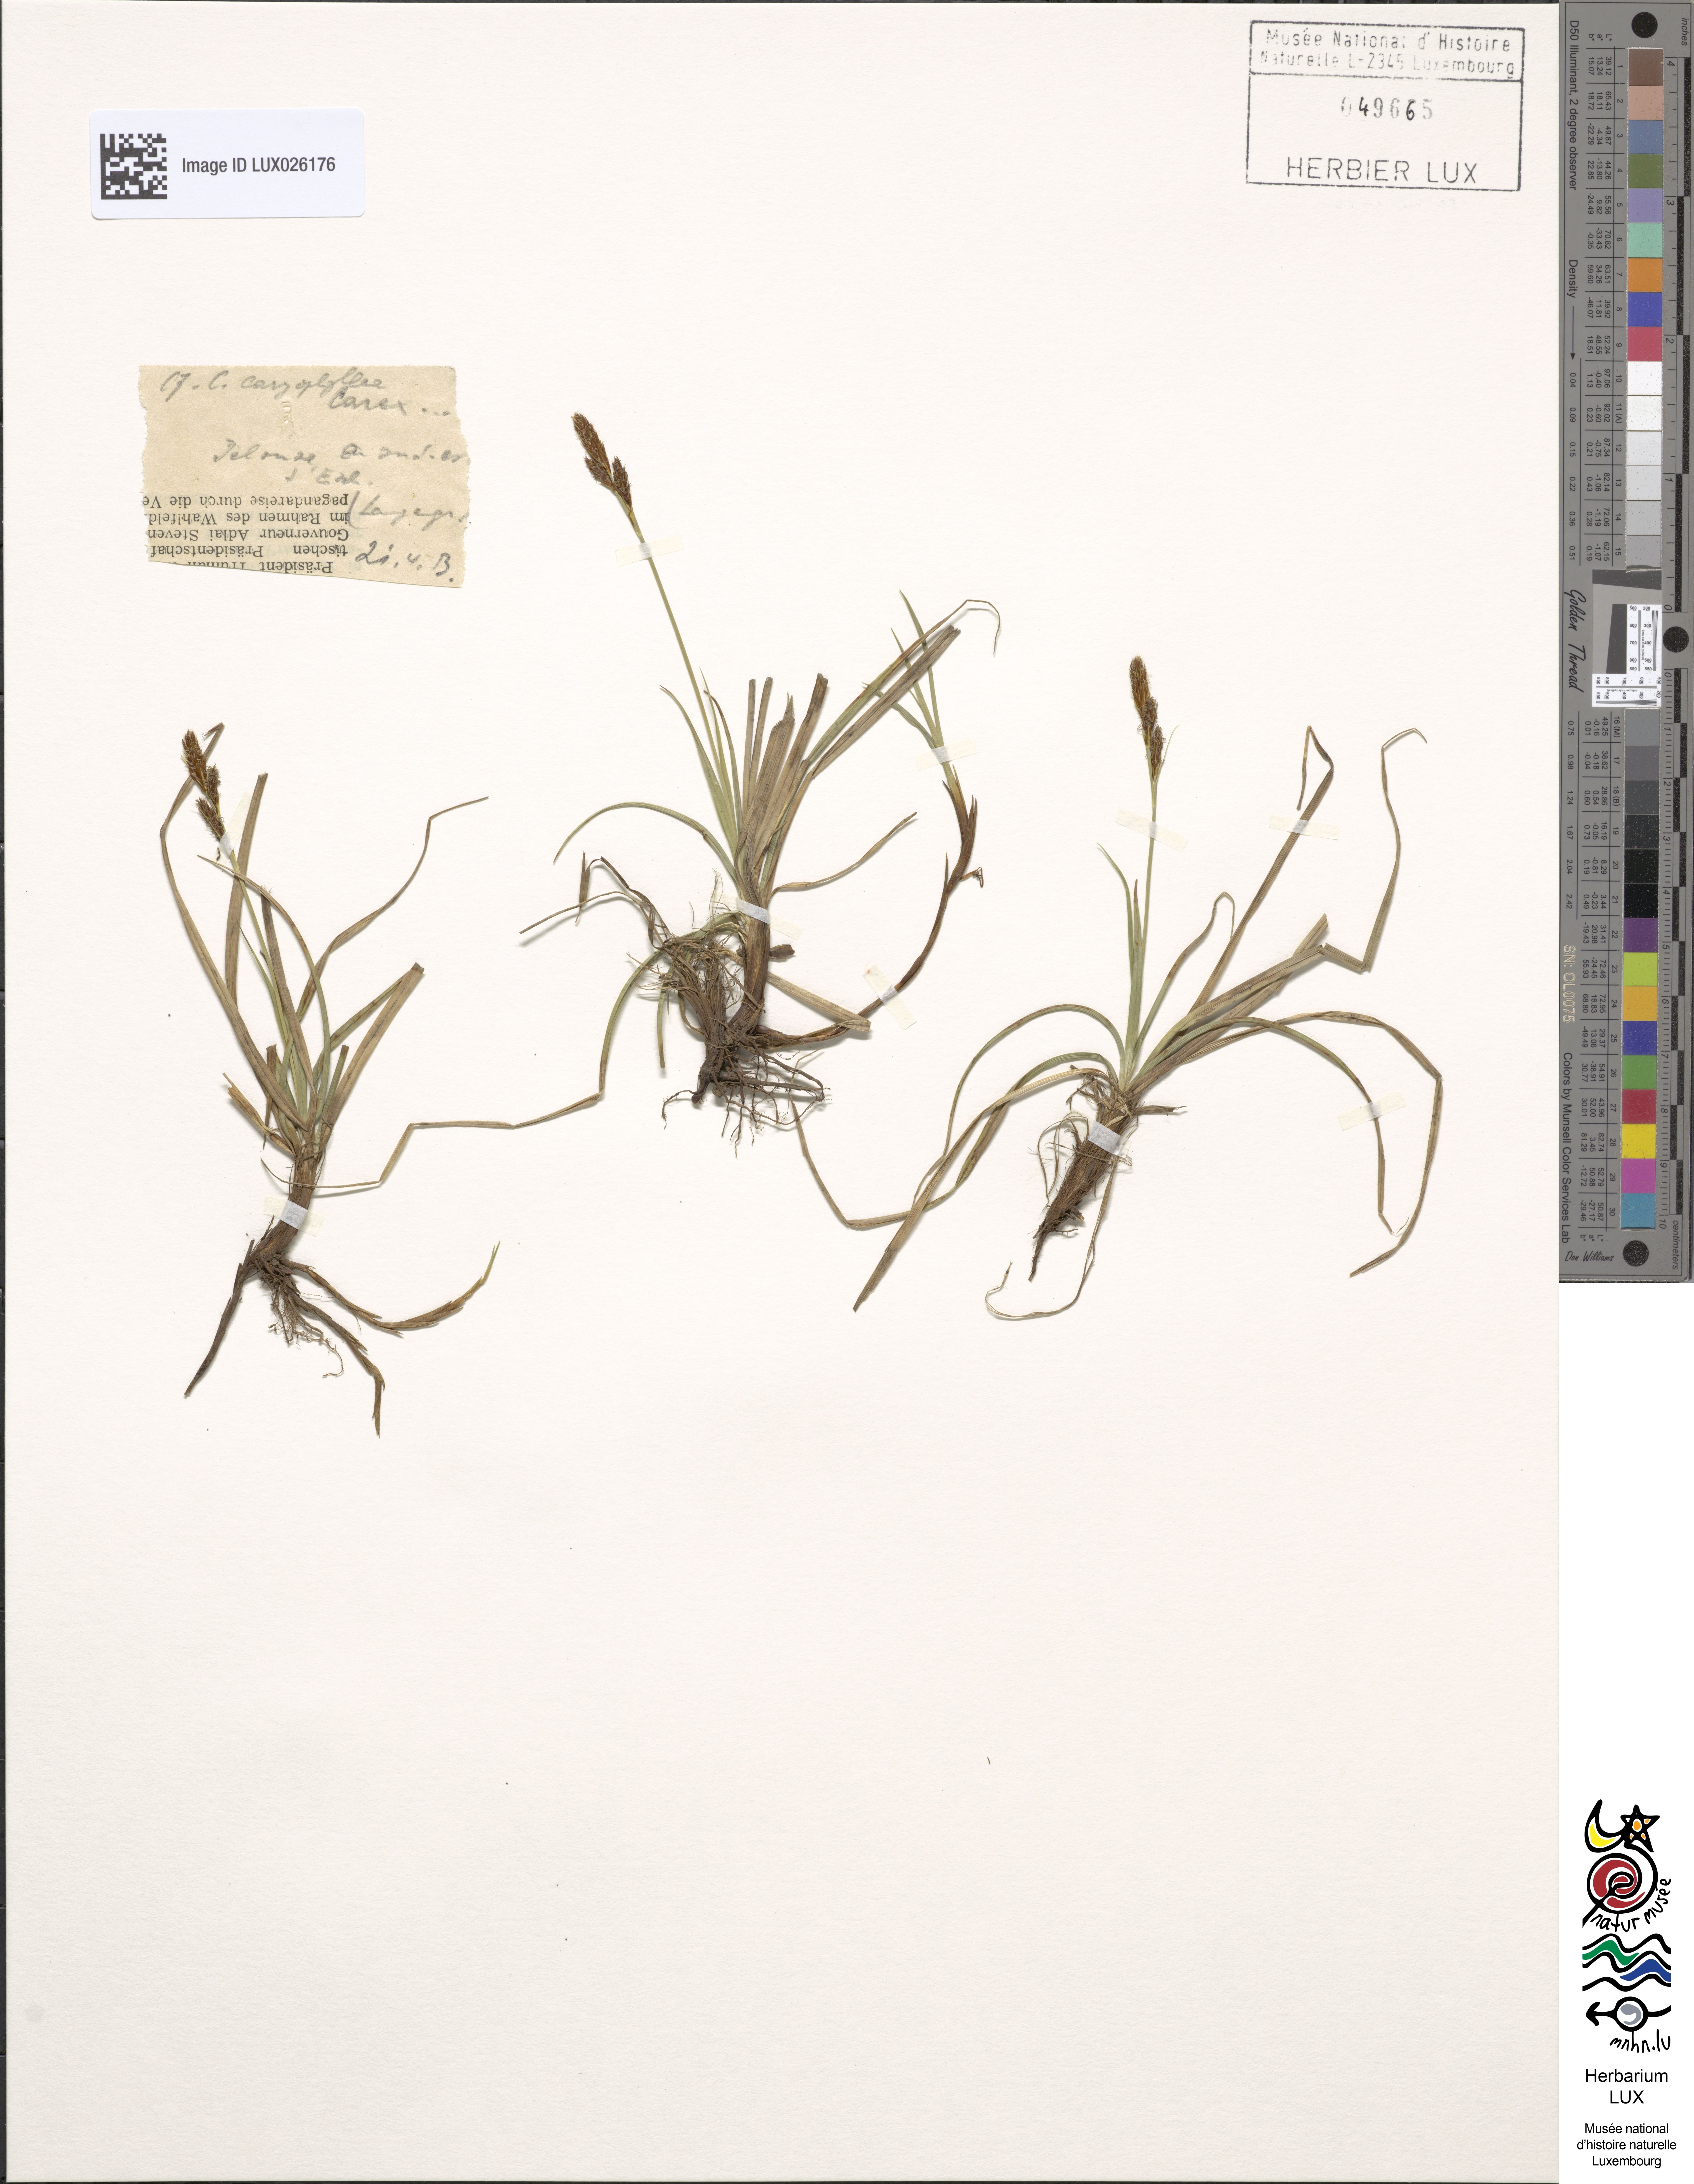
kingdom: Plantae
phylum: Tracheophyta
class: Liliopsida
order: Poales
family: Cyperaceae
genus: Carex
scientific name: Carex caryophyllea
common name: Spring sedge
